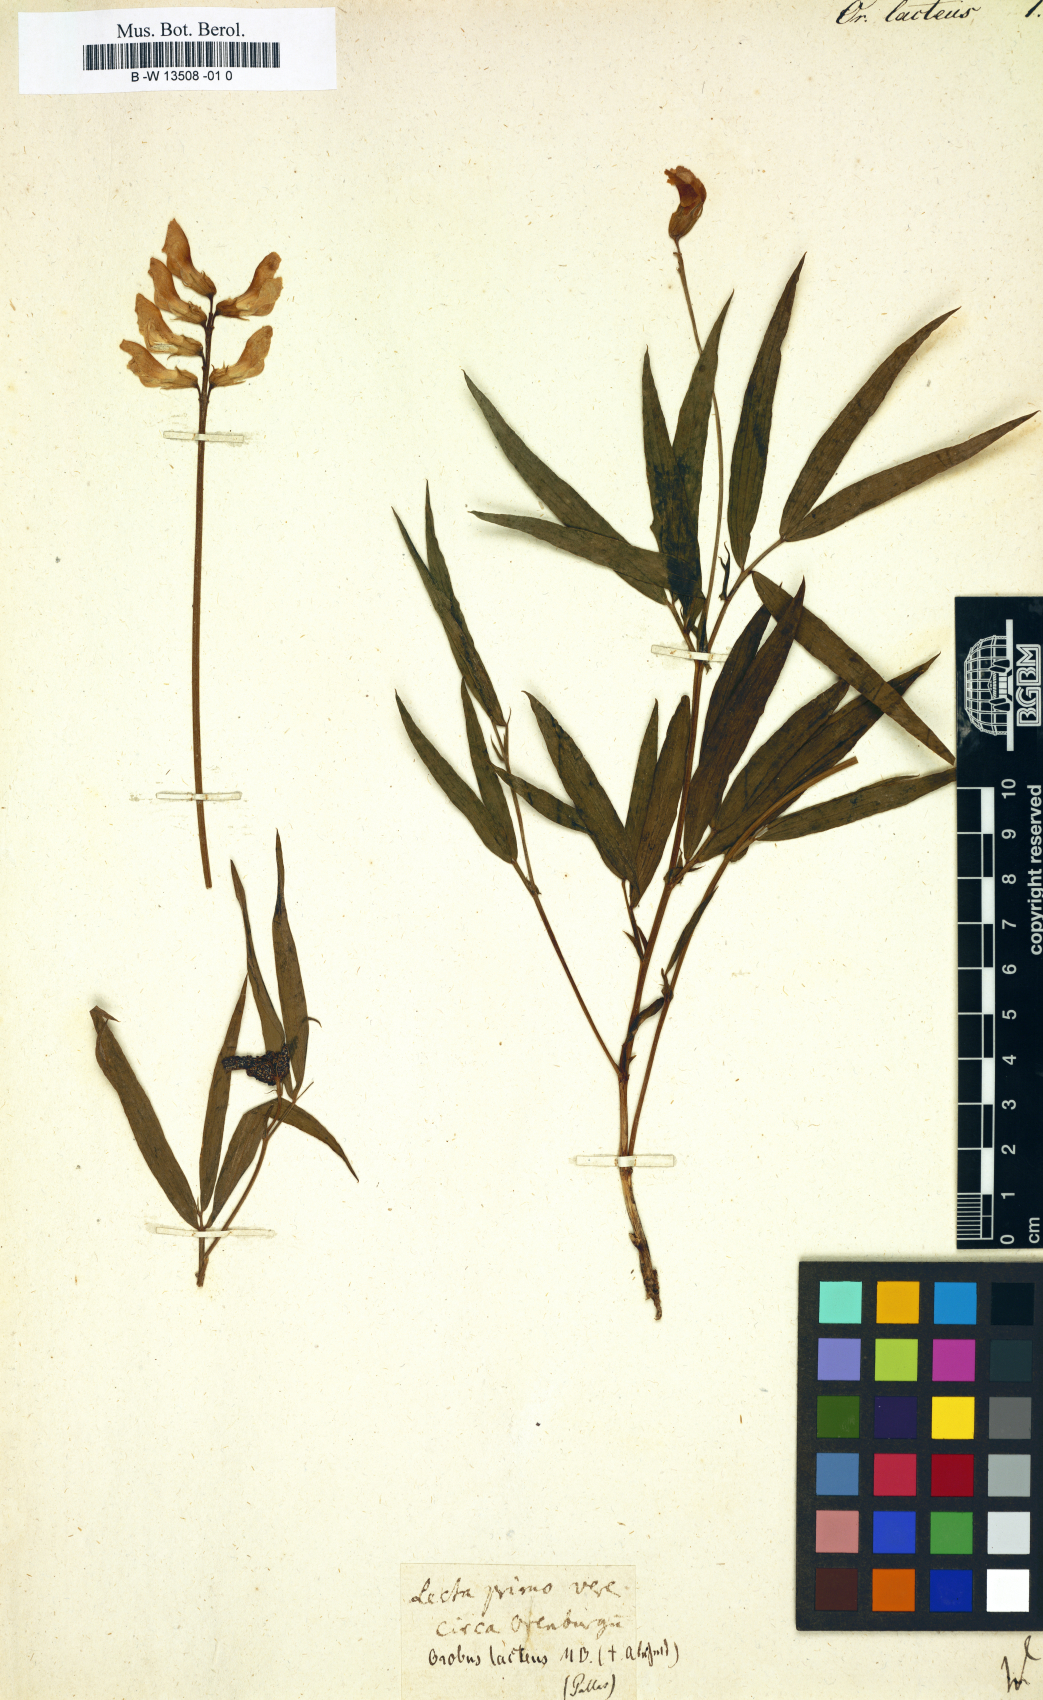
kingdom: Plantae
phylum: Tracheophyta
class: Magnoliopsida
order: Fabales
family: Fabaceae
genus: Lathyrus
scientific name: Lathyrus pannonicus
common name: Pea
